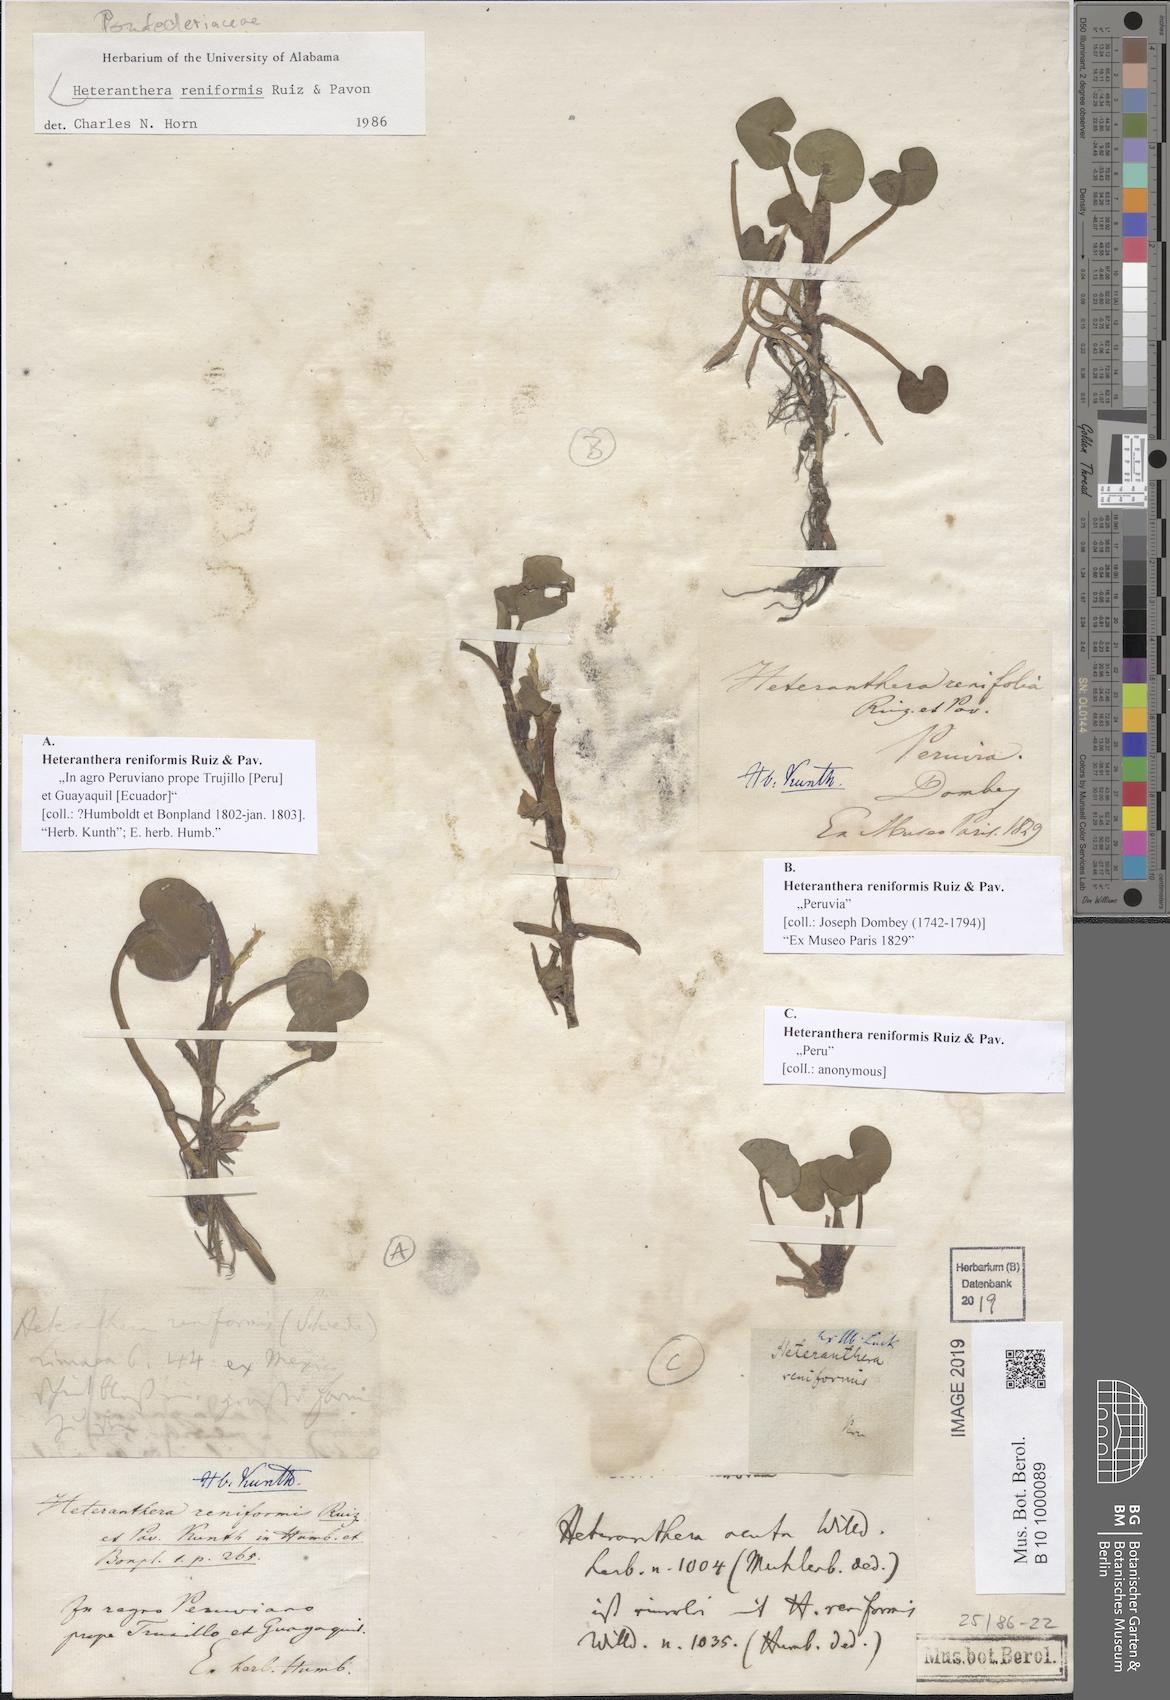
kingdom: Plantae
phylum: Tracheophyta
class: Liliopsida
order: Commelinales
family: Pontederiaceae
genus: Heteranthera
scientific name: Heteranthera reniformis
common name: Kidneyleaf mudplantain
